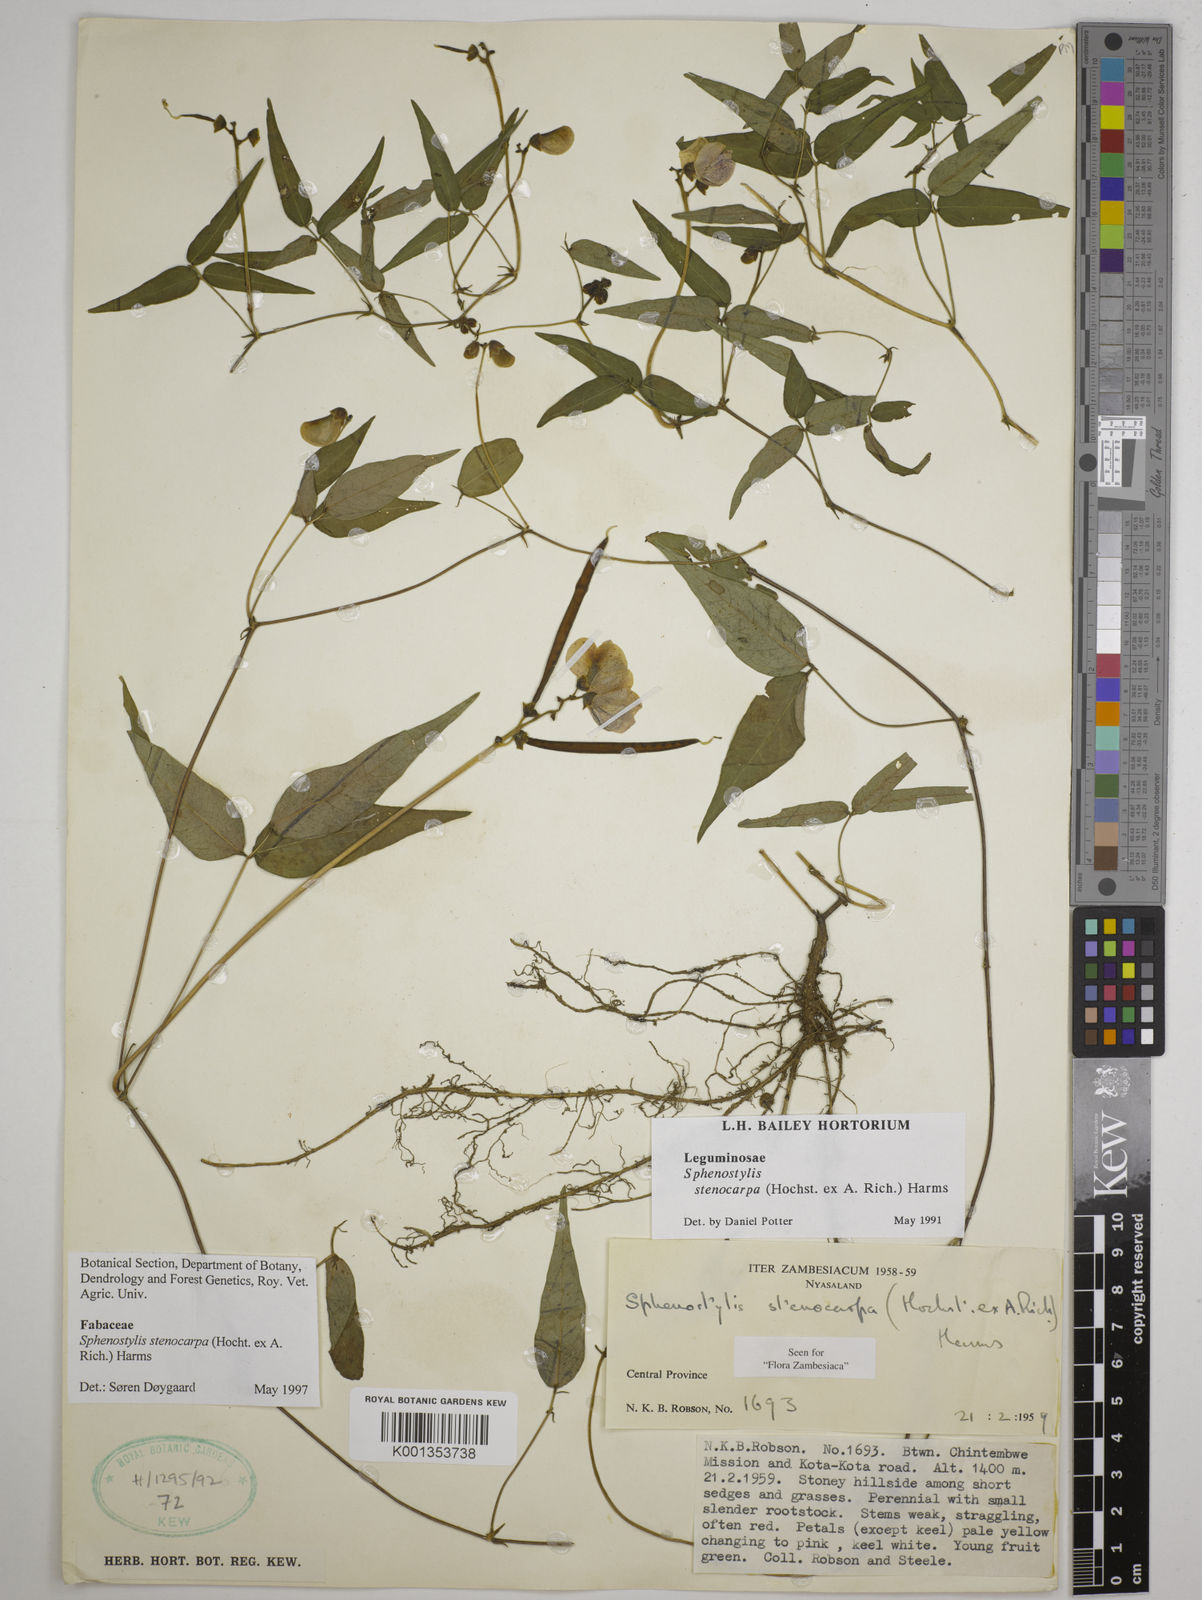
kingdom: Plantae
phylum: Tracheophyta
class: Magnoliopsida
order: Fabales
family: Fabaceae
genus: Sphenostylis
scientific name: Sphenostylis stenocarpa
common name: Yam-pea
